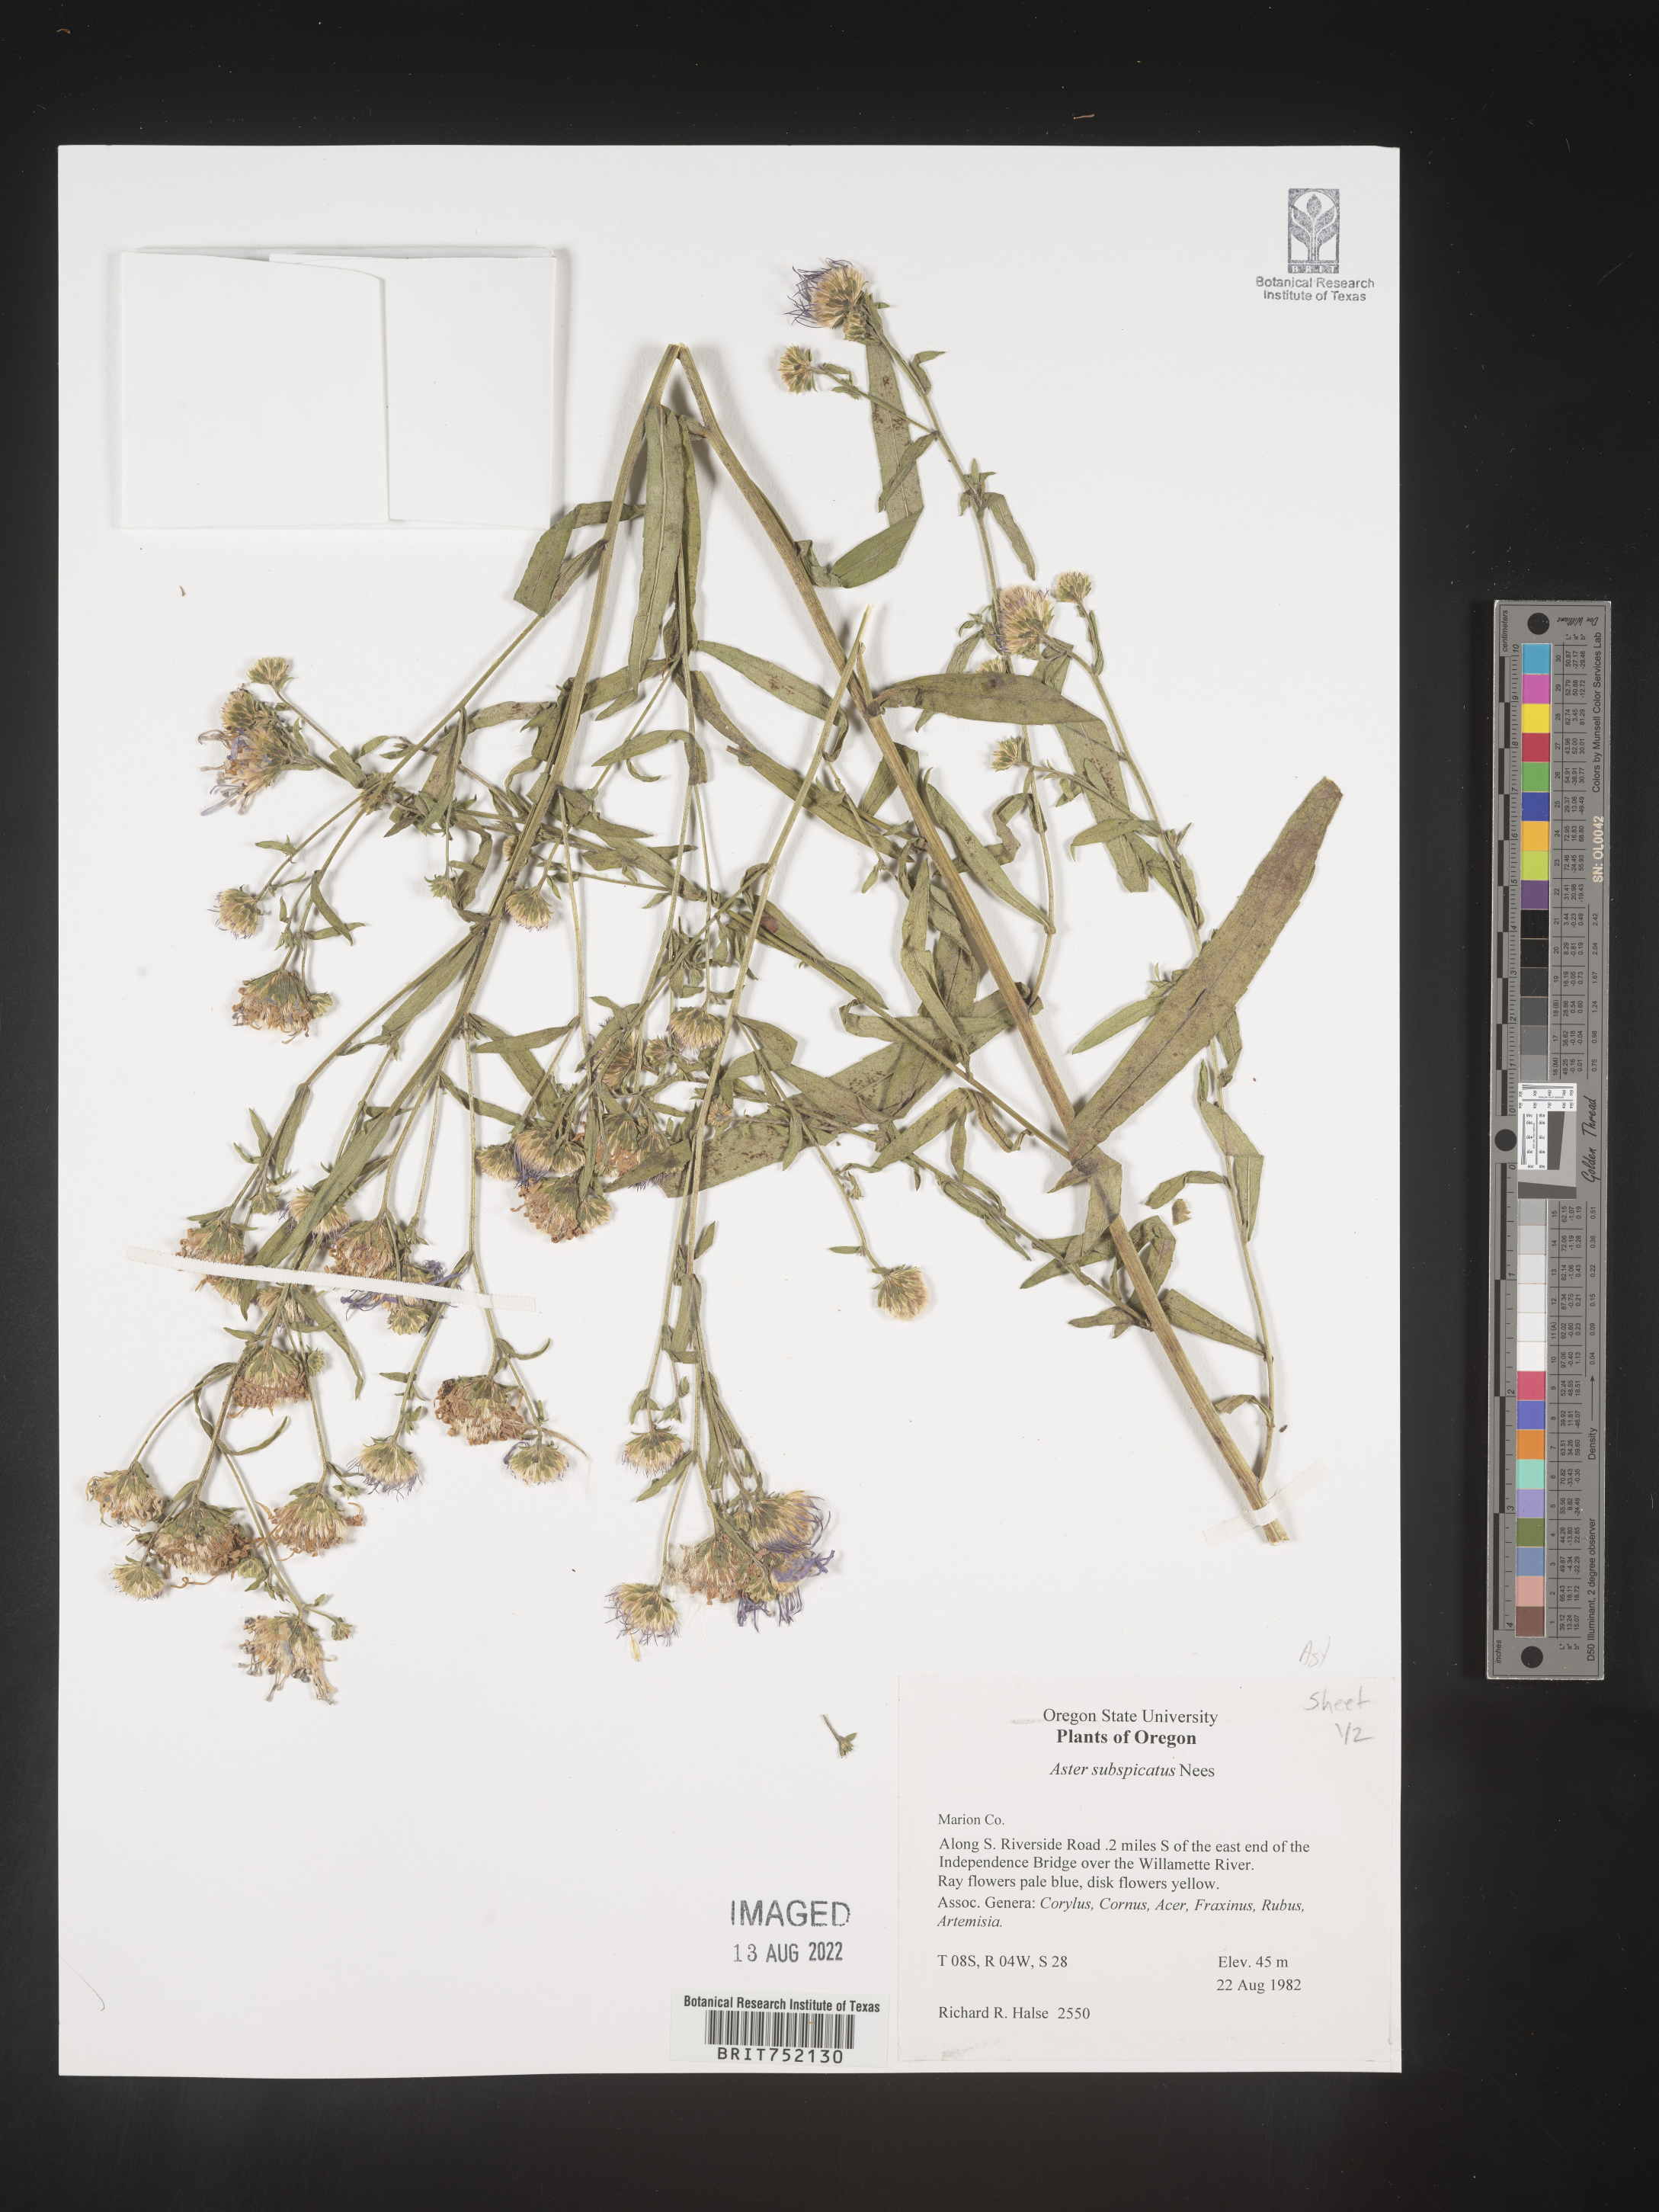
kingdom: Plantae
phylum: Tracheophyta
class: Magnoliopsida
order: Asterales
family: Asteraceae
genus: Symphyotrichum
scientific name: Symphyotrichum subspicatum
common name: Douglas' aster
